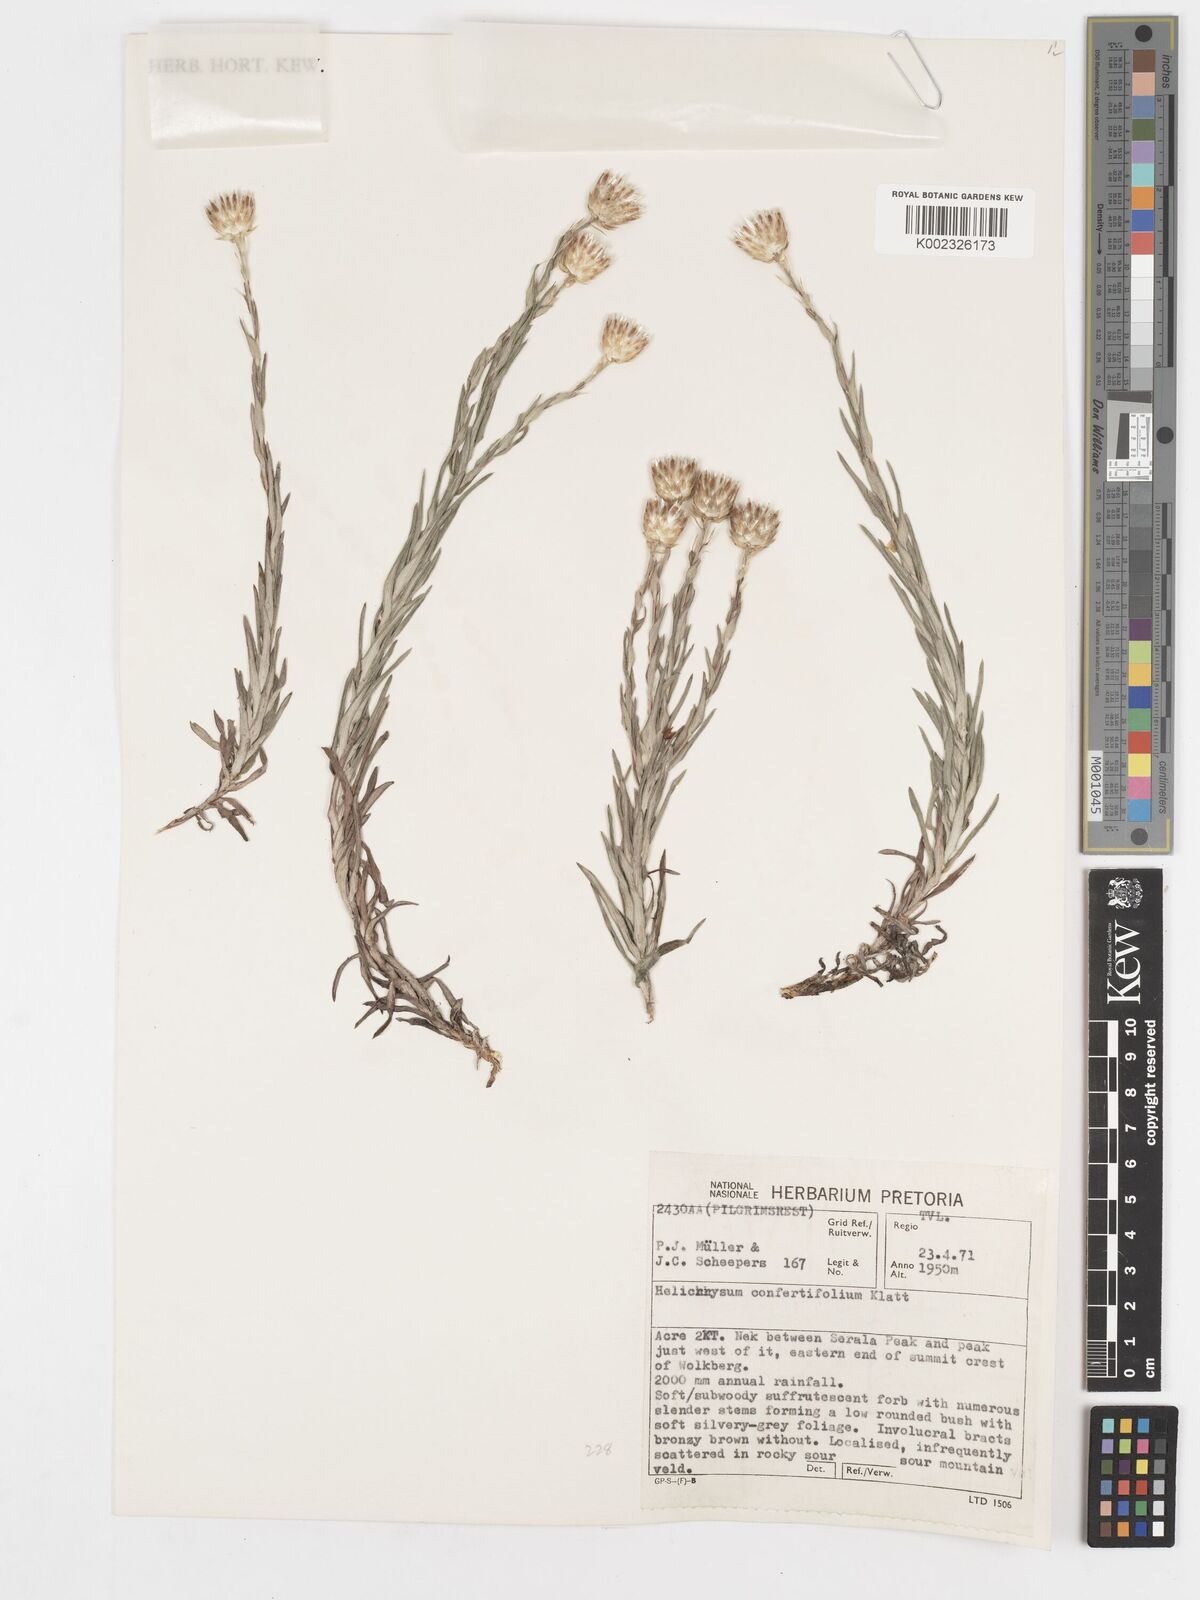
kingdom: Plantae
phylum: Tracheophyta
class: Magnoliopsida
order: Asterales
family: Asteraceae
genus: Helichrysum
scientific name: Helichrysum confertifolium
